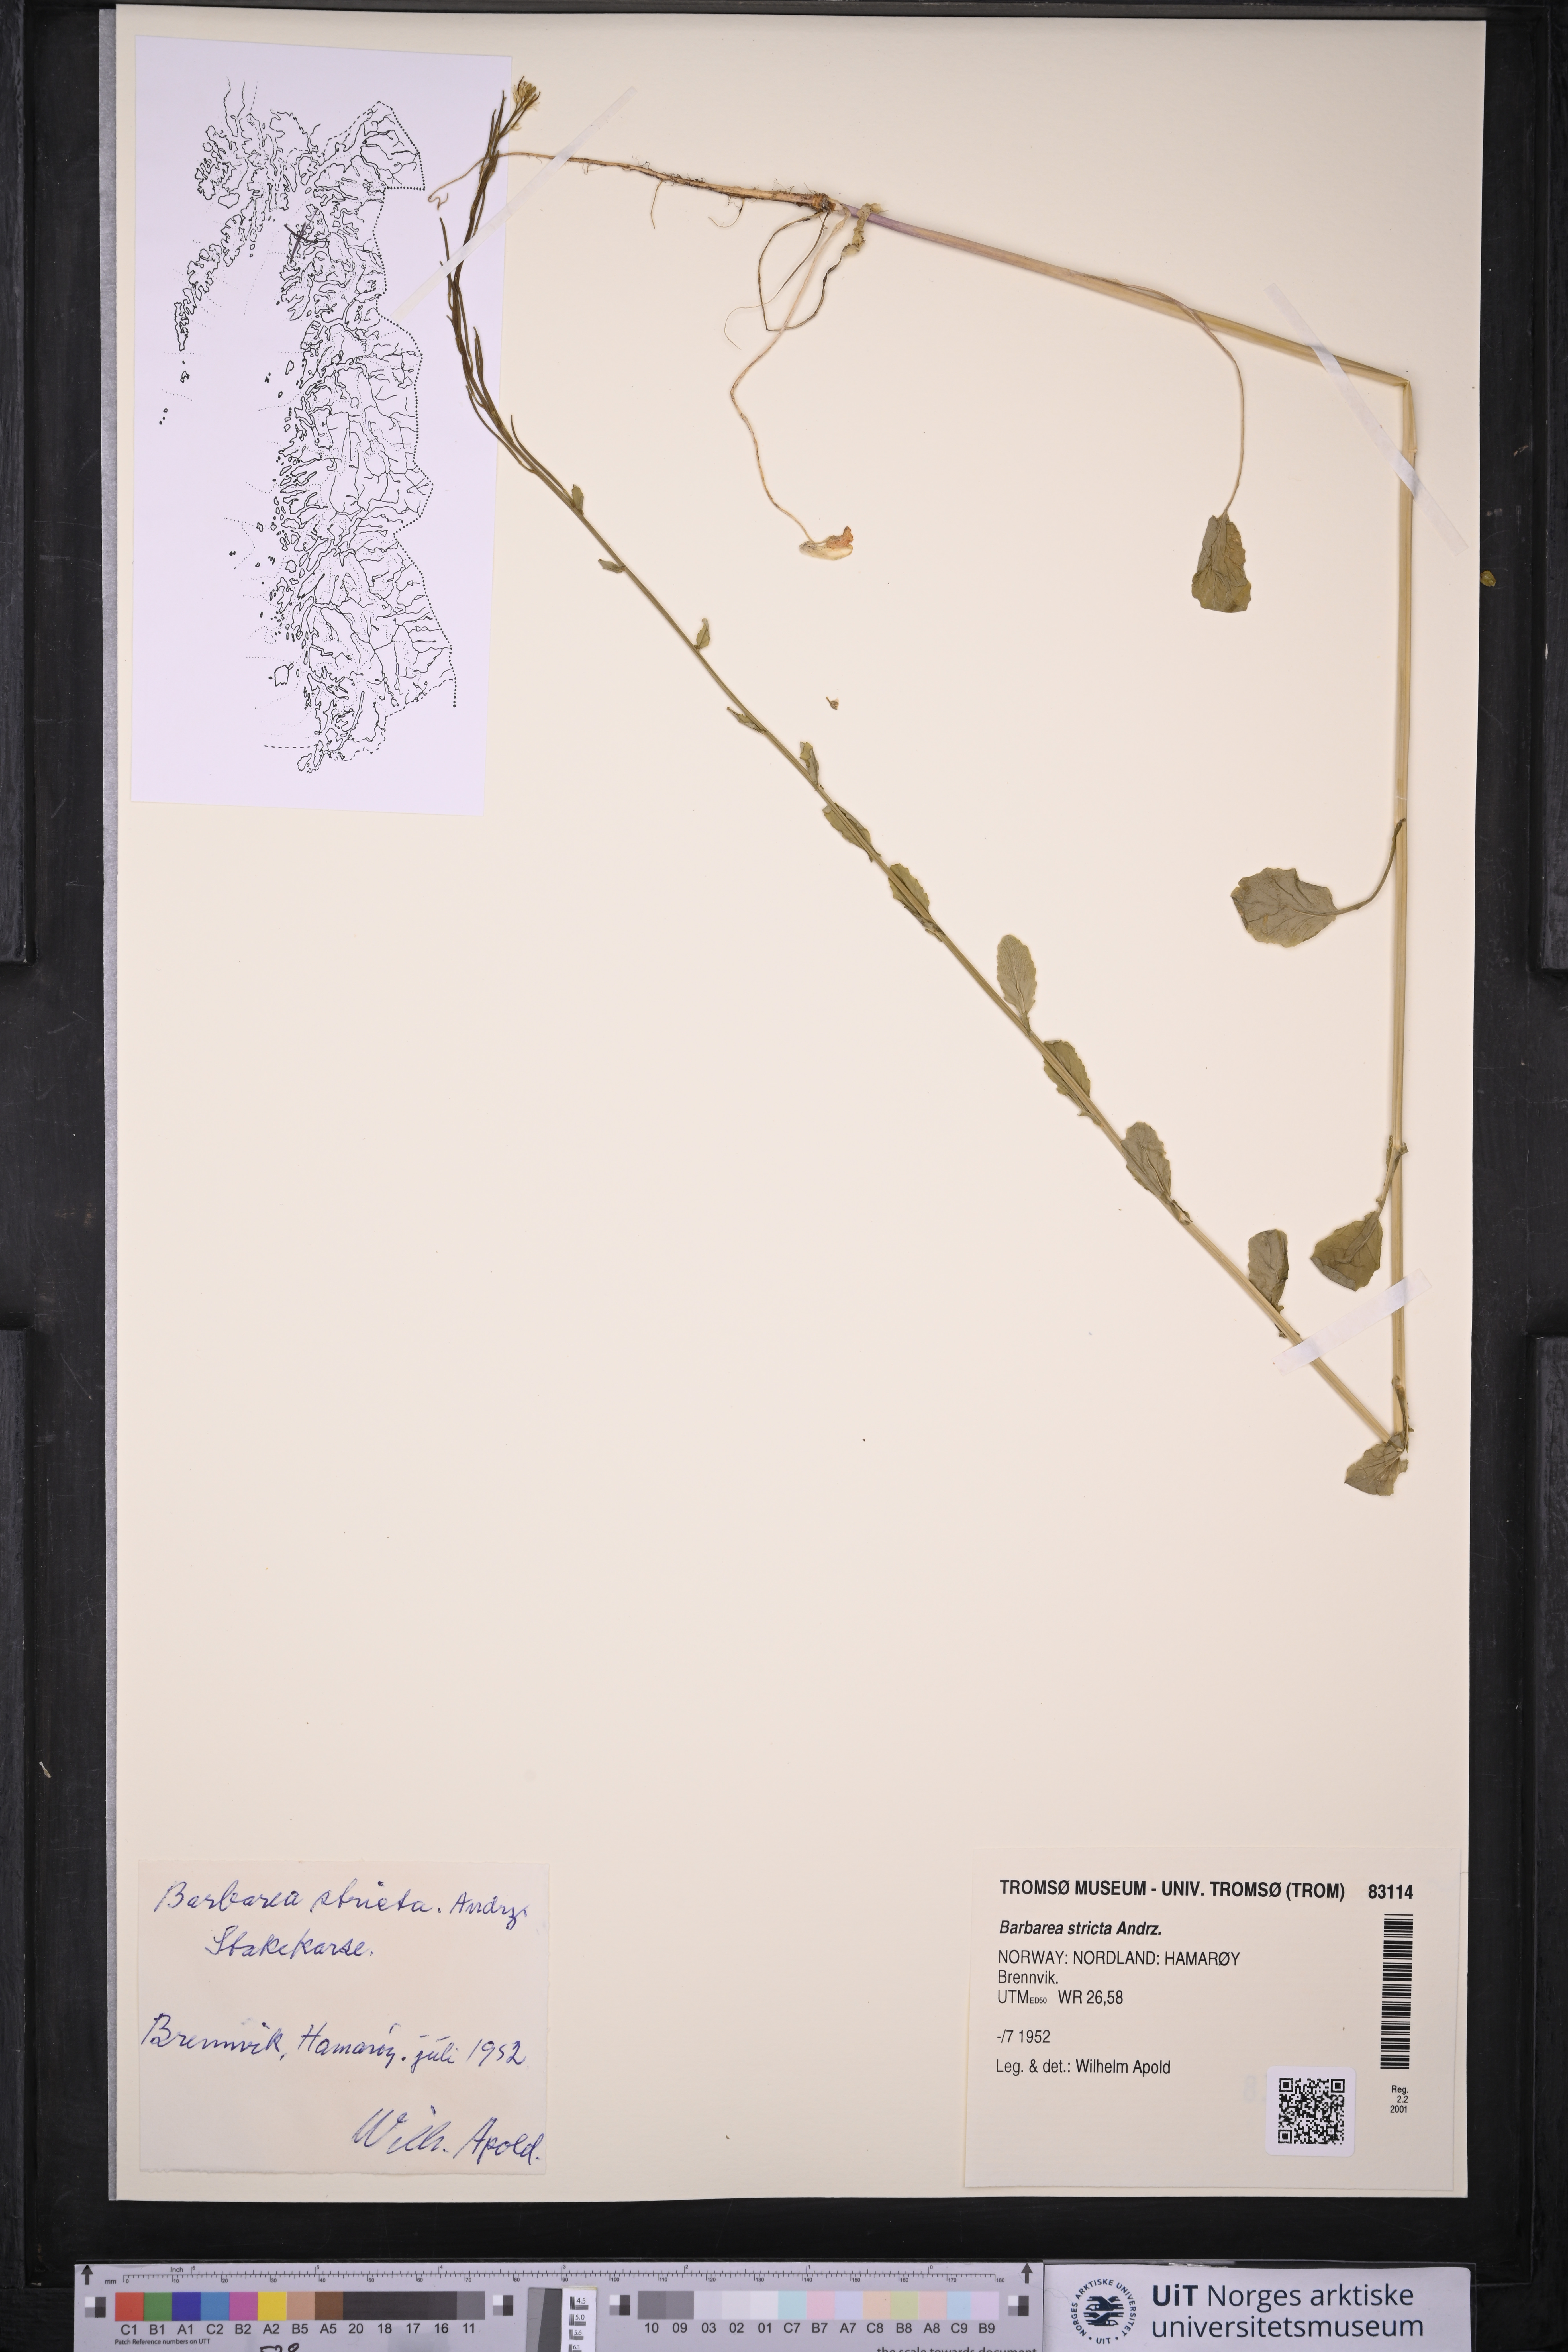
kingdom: Plantae
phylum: Tracheophyta
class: Magnoliopsida
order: Brassicales
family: Brassicaceae
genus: Barbarea
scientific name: Barbarea stricta
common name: Small-flowered winter-cress
